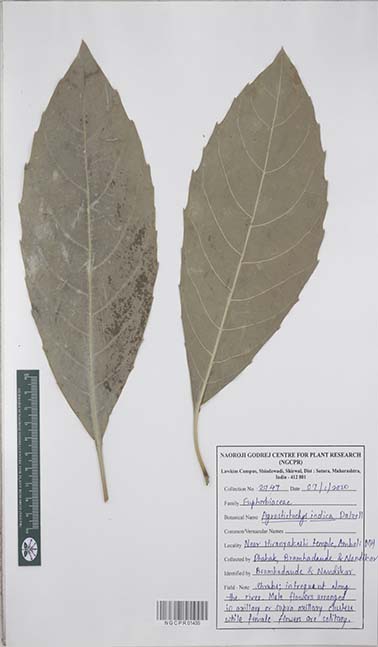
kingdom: Plantae
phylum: Tracheophyta
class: Magnoliopsida
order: Malpighiales
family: Euphorbiaceae
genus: Agrostistachys
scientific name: Agrostistachys indica
